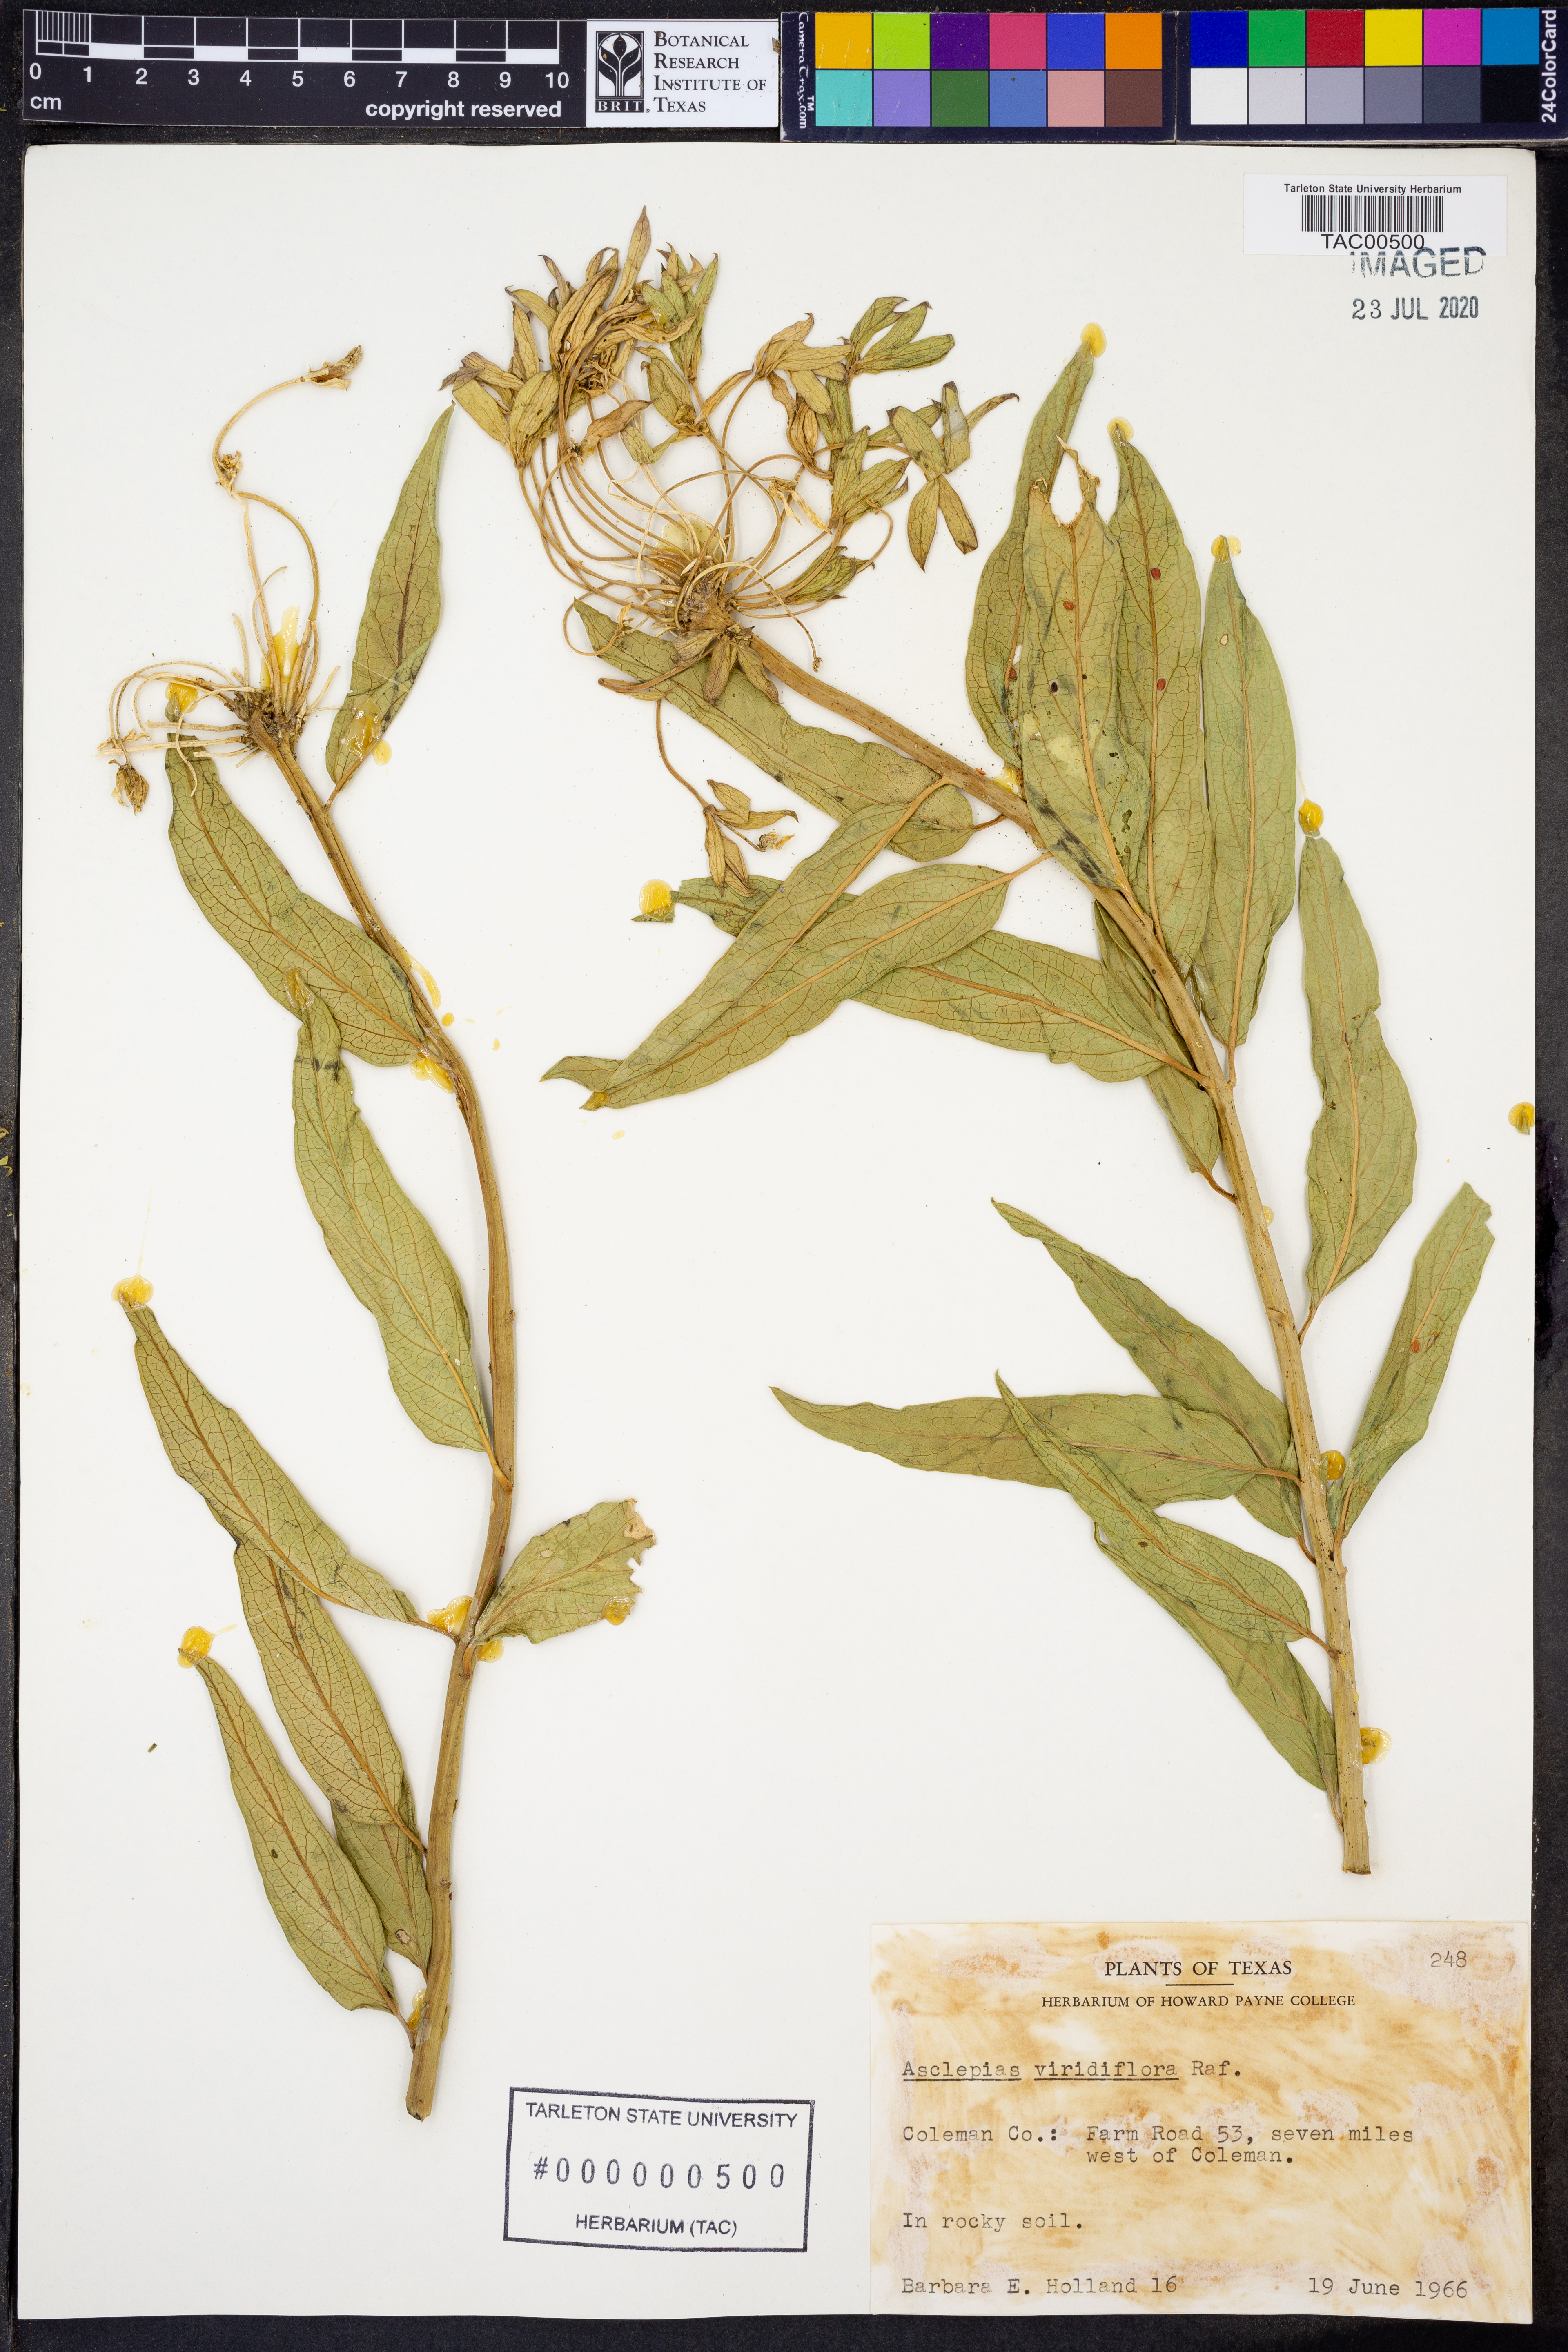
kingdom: Plantae
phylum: Tracheophyta
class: Magnoliopsida
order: Gentianales
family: Apocynaceae
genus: Asclepias
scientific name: Asclepias viridiflora
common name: Green comet milkweed
